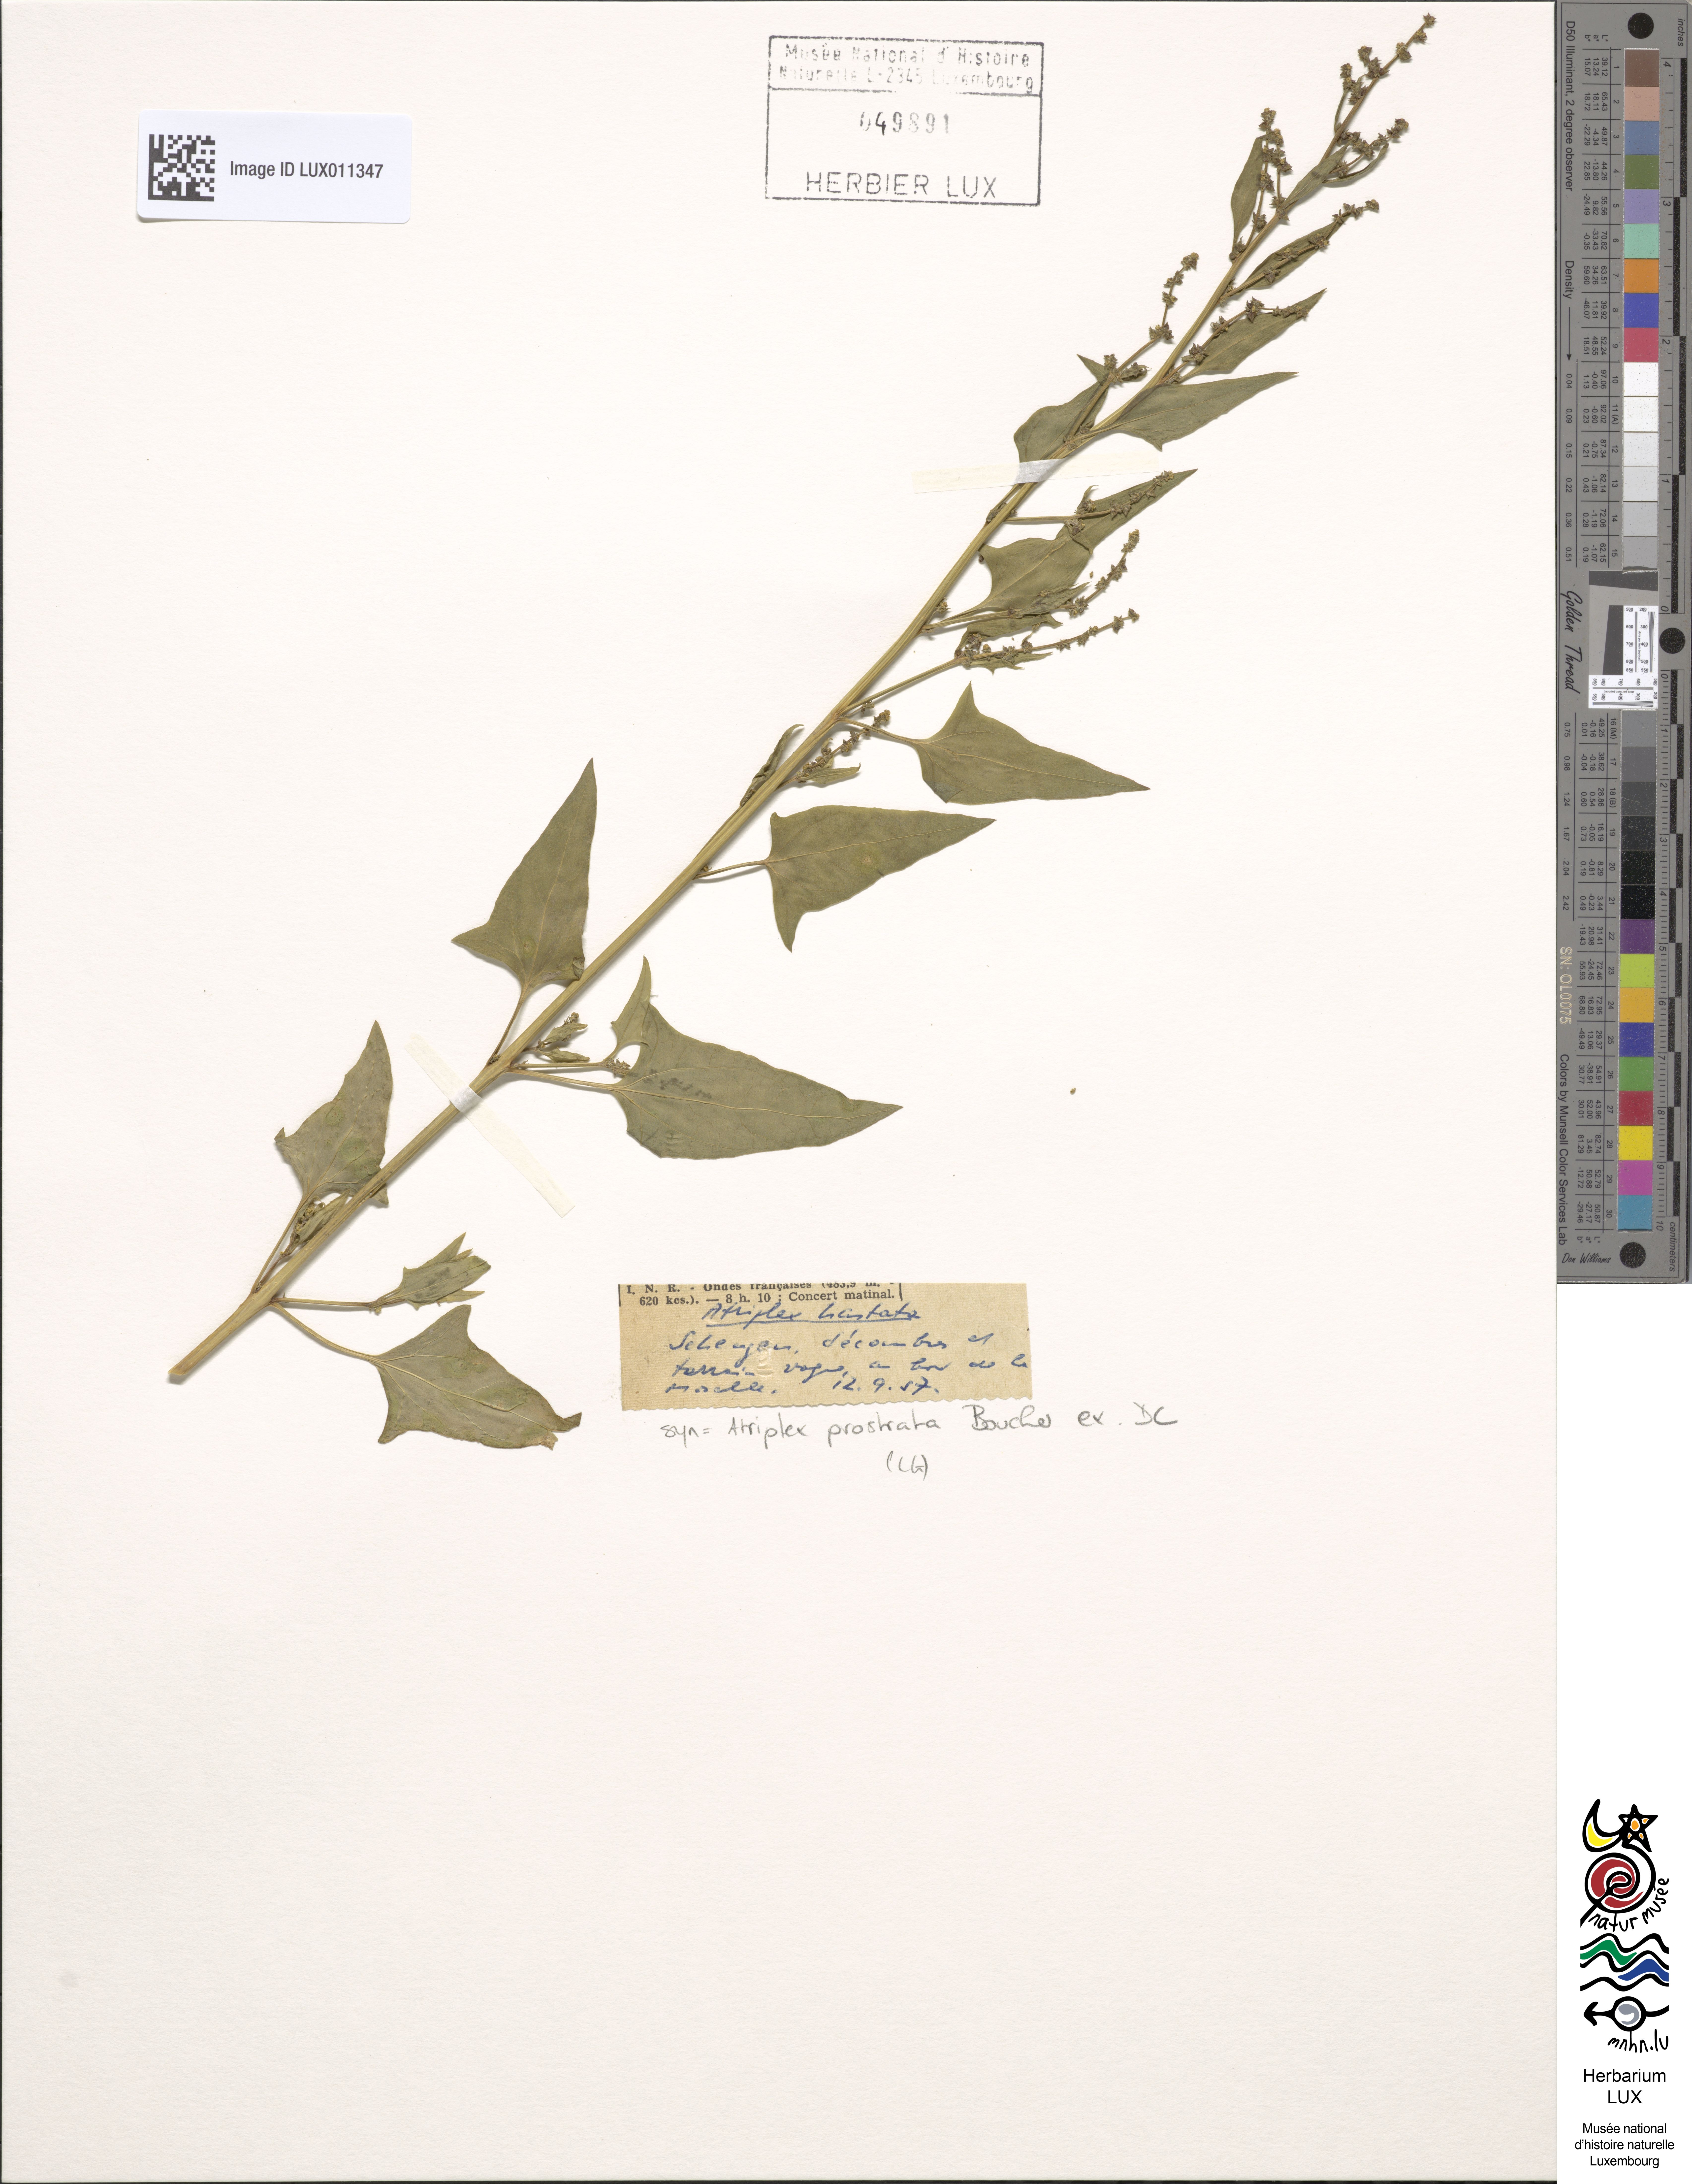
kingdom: Plantae
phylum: Tracheophyta
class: Magnoliopsida
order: Caryophyllales
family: Amaranthaceae
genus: Atriplex
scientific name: Atriplex
